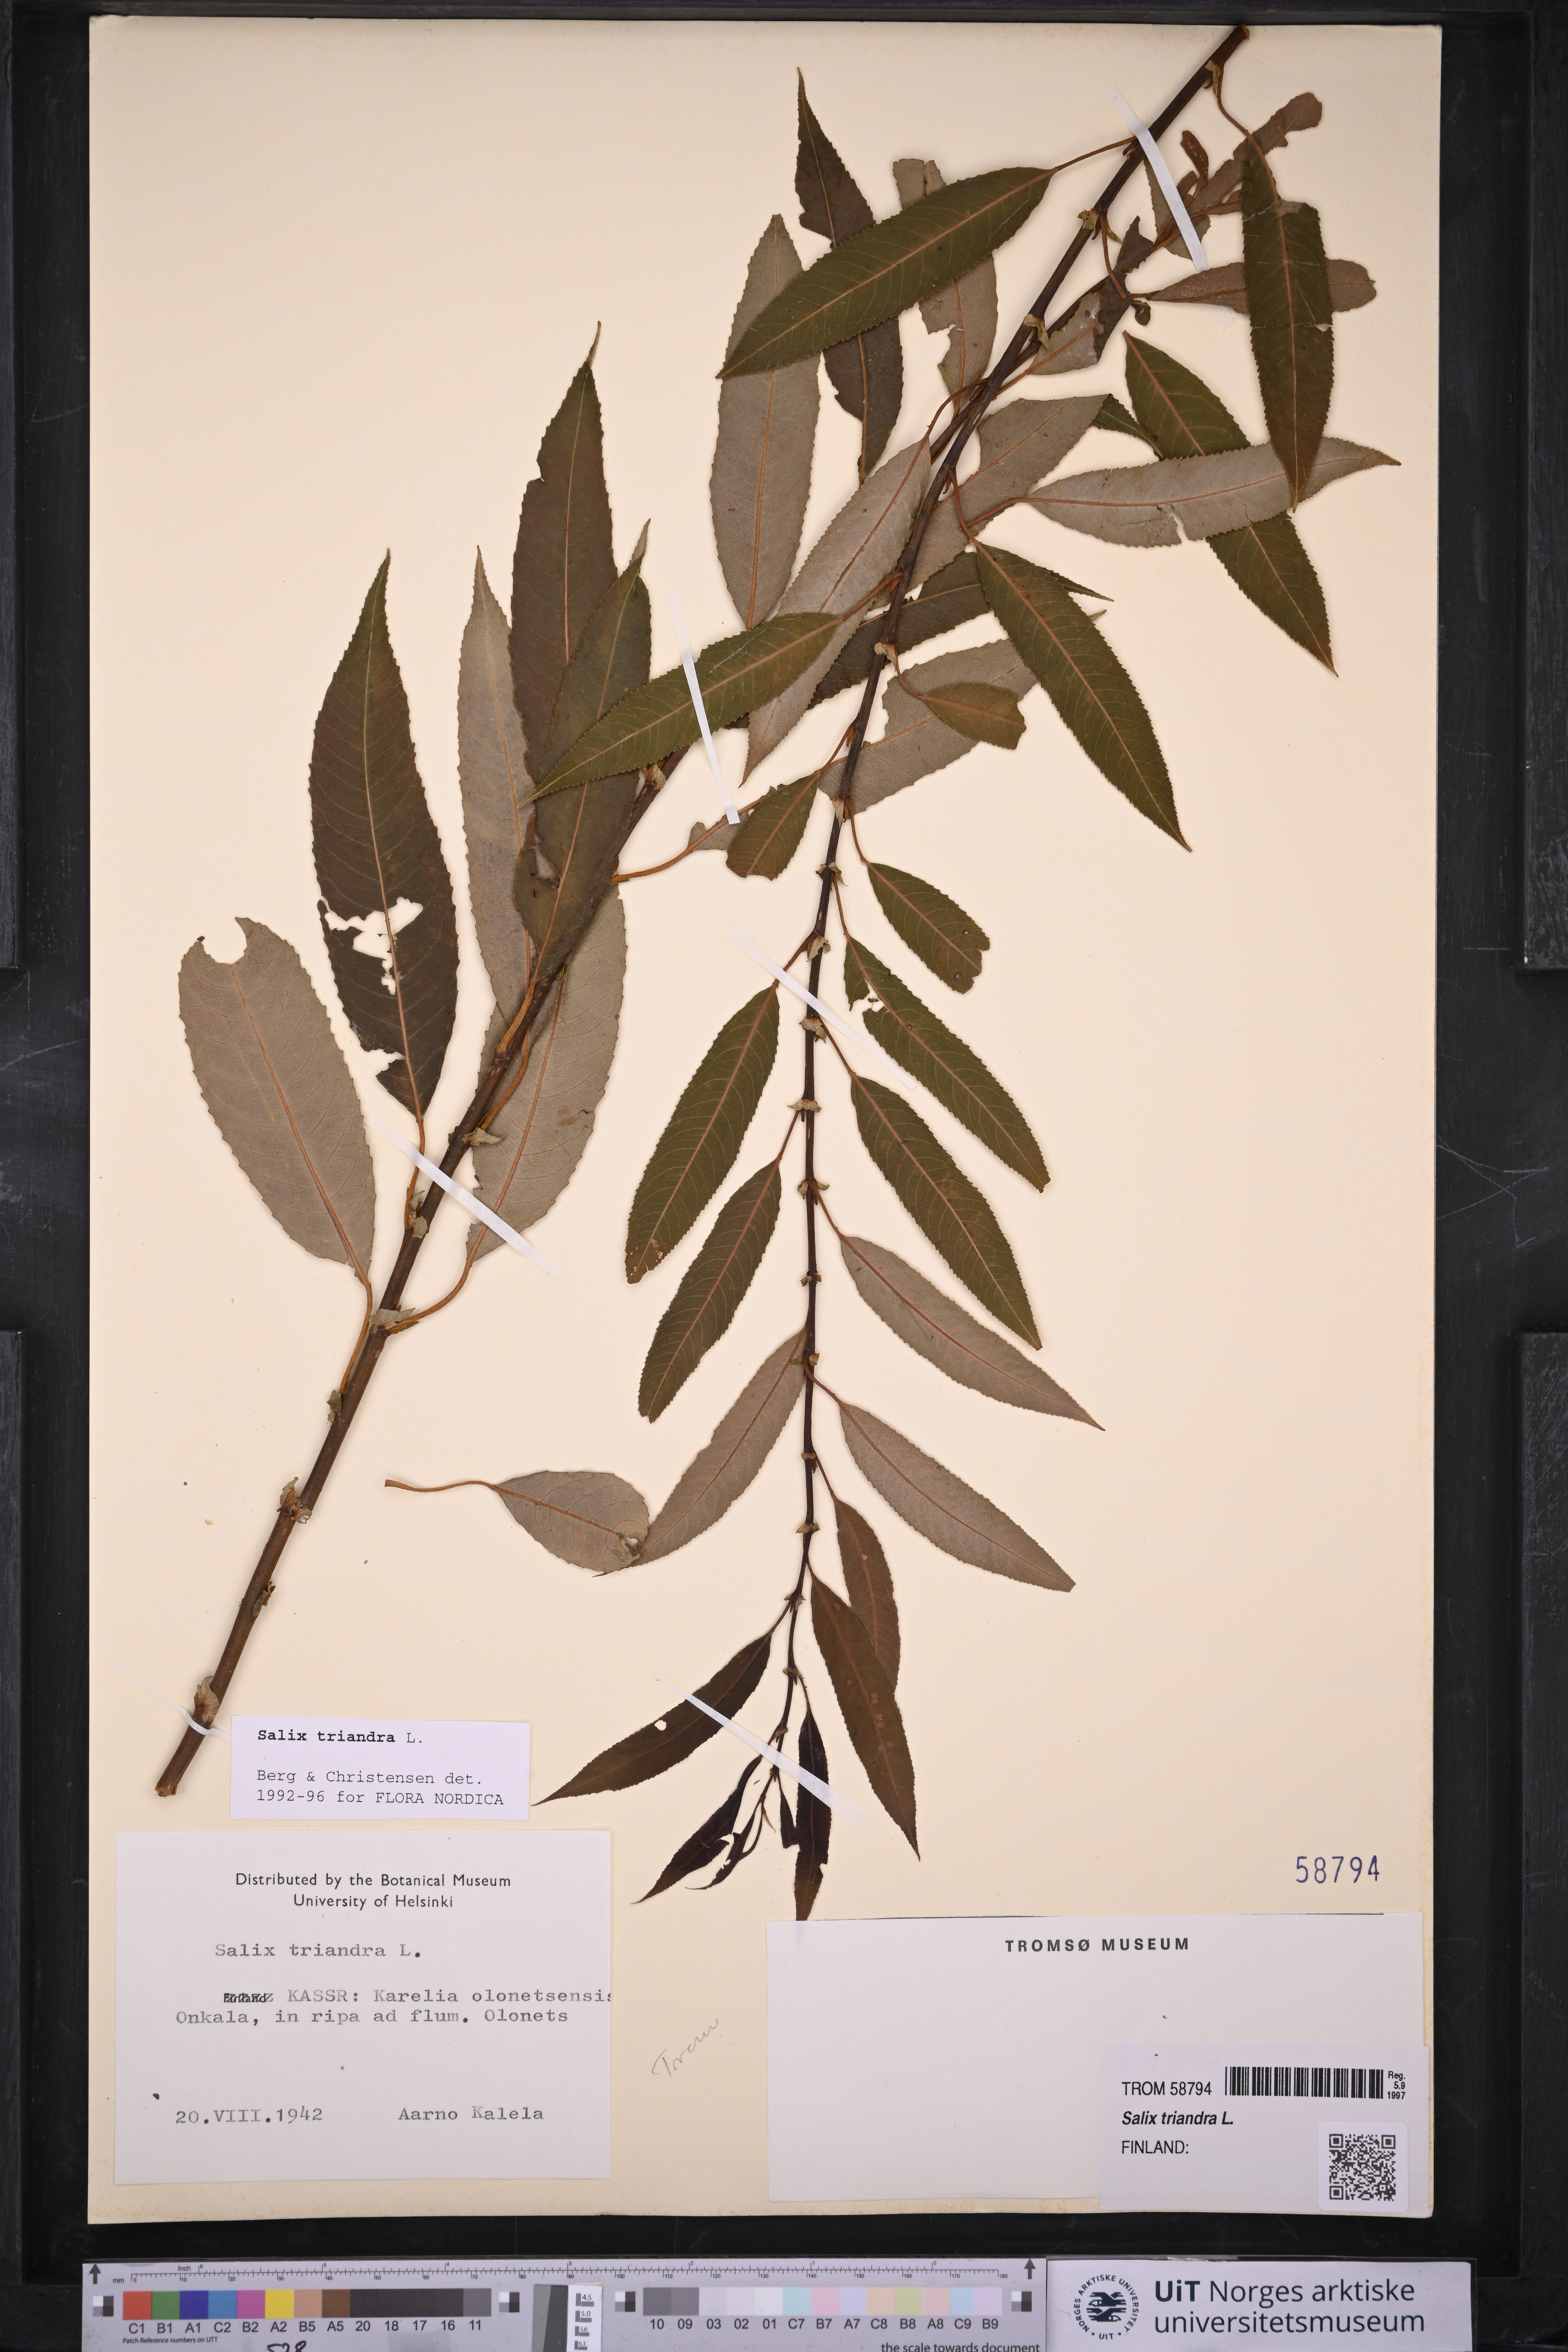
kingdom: Plantae
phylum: Tracheophyta
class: Magnoliopsida
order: Malpighiales
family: Salicaceae
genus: Salix
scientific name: Salix triandra
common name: Almond willow
